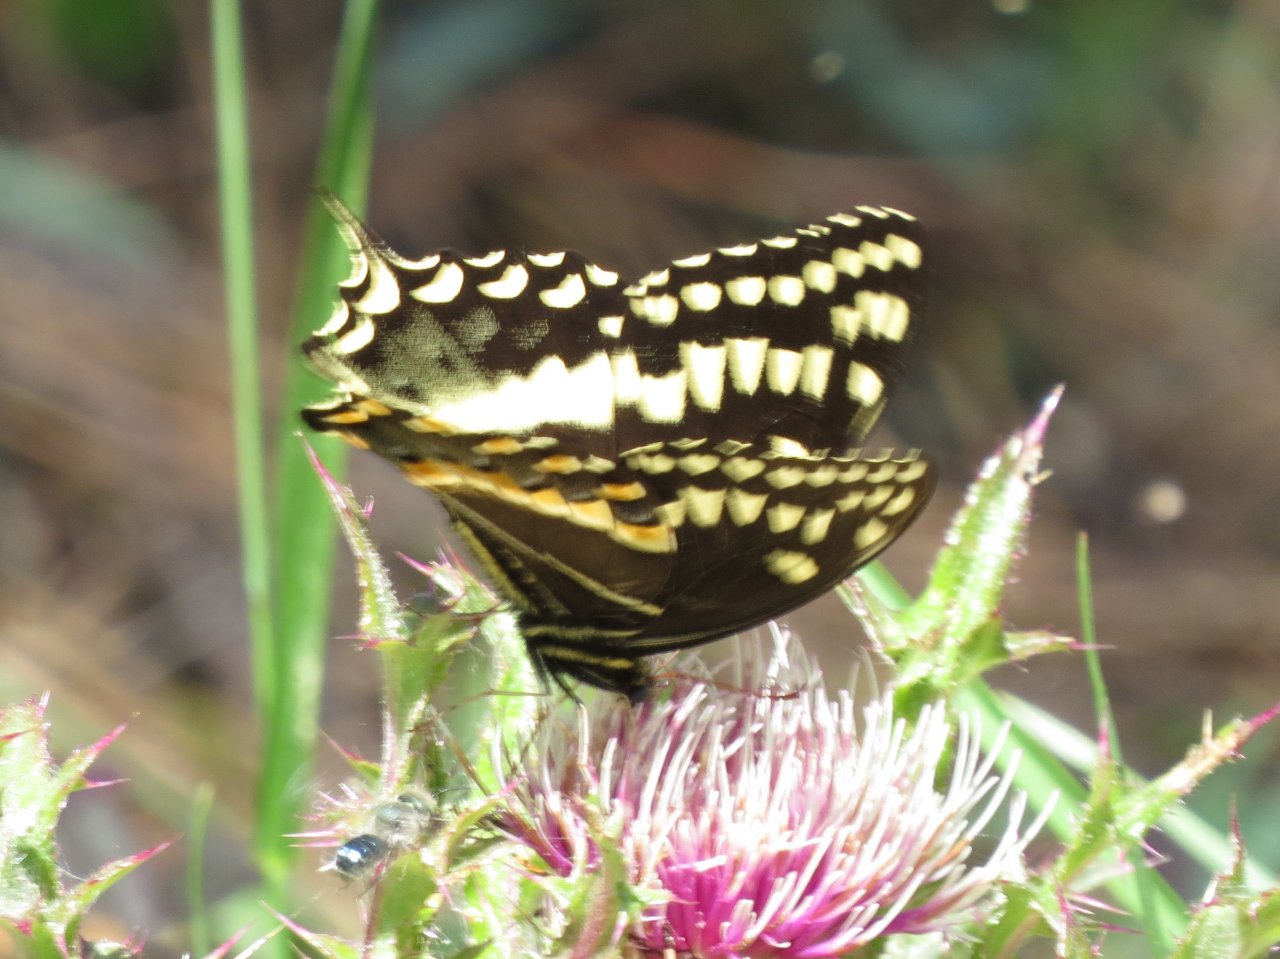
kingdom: Animalia
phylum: Arthropoda
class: Insecta
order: Lepidoptera
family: Papilionidae
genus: Pterourus
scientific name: Pterourus palamedes
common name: Palamedes Swallowtail
